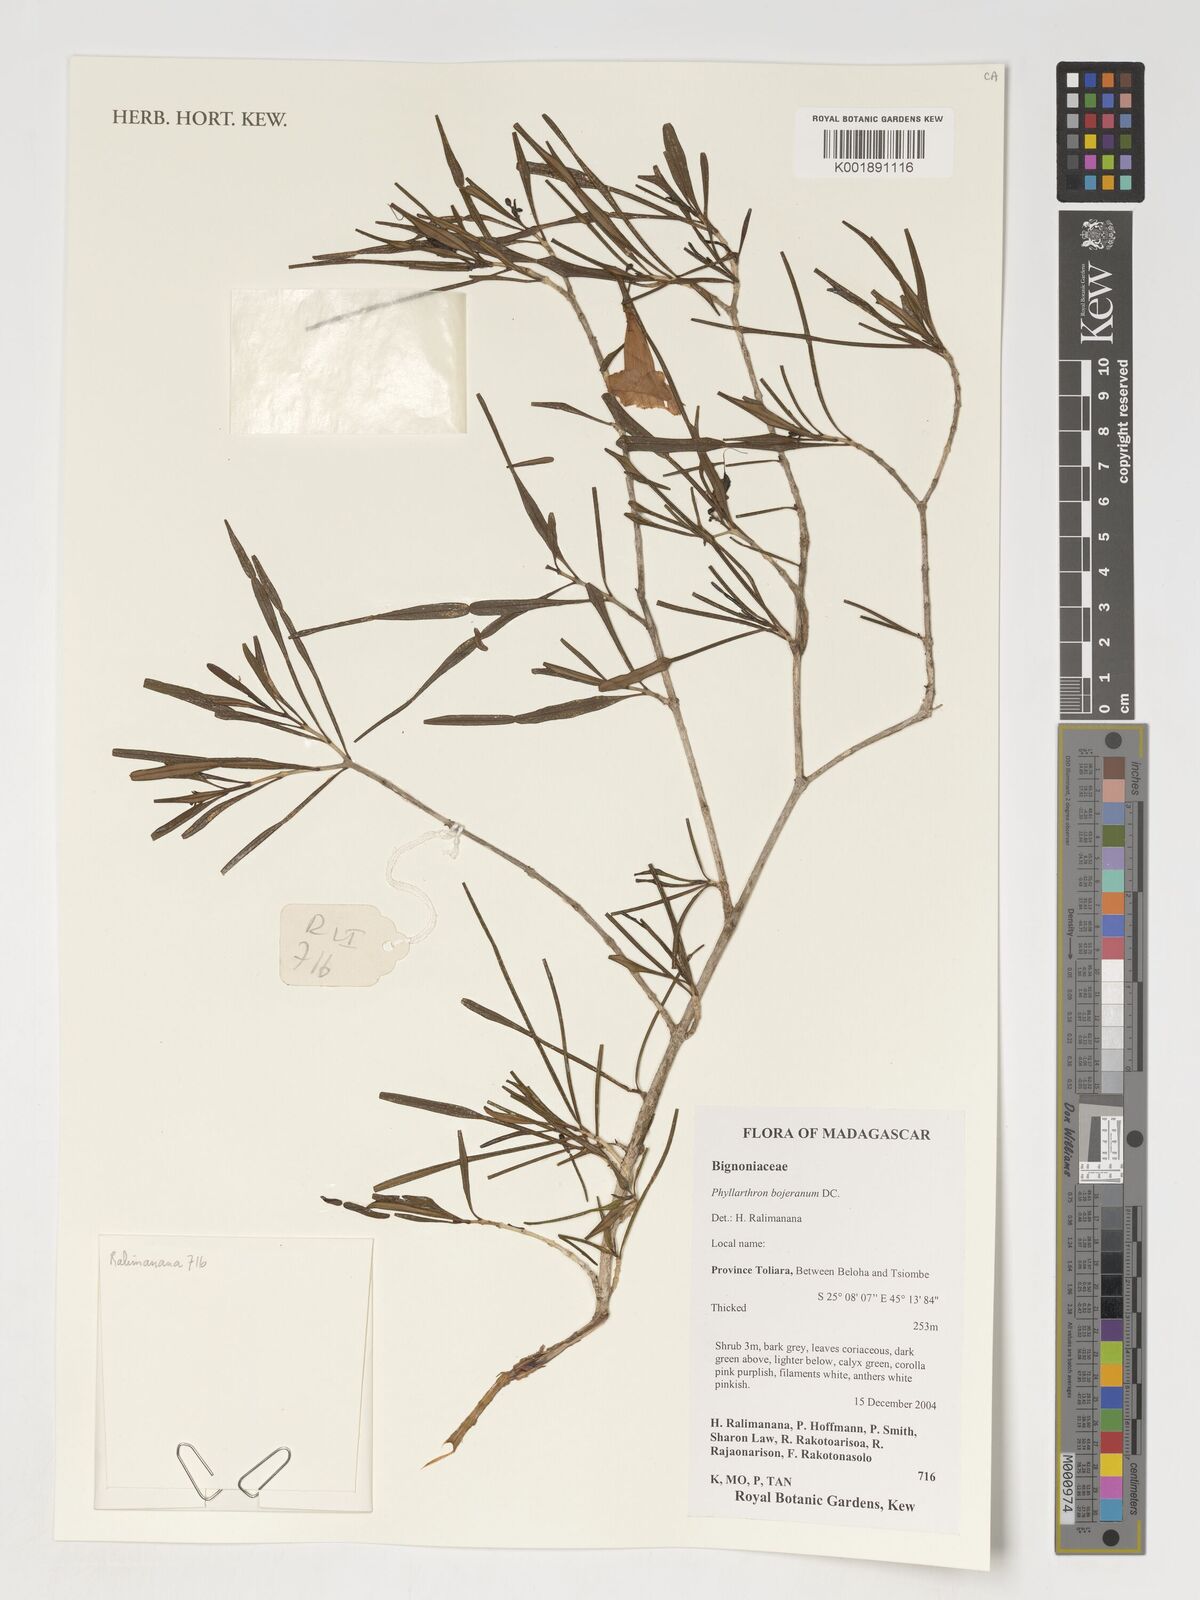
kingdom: Plantae
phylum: Tracheophyta
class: Magnoliopsida
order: Lamiales
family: Bignoniaceae
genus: Phyllarthron
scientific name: Phyllarthron bernierianum
